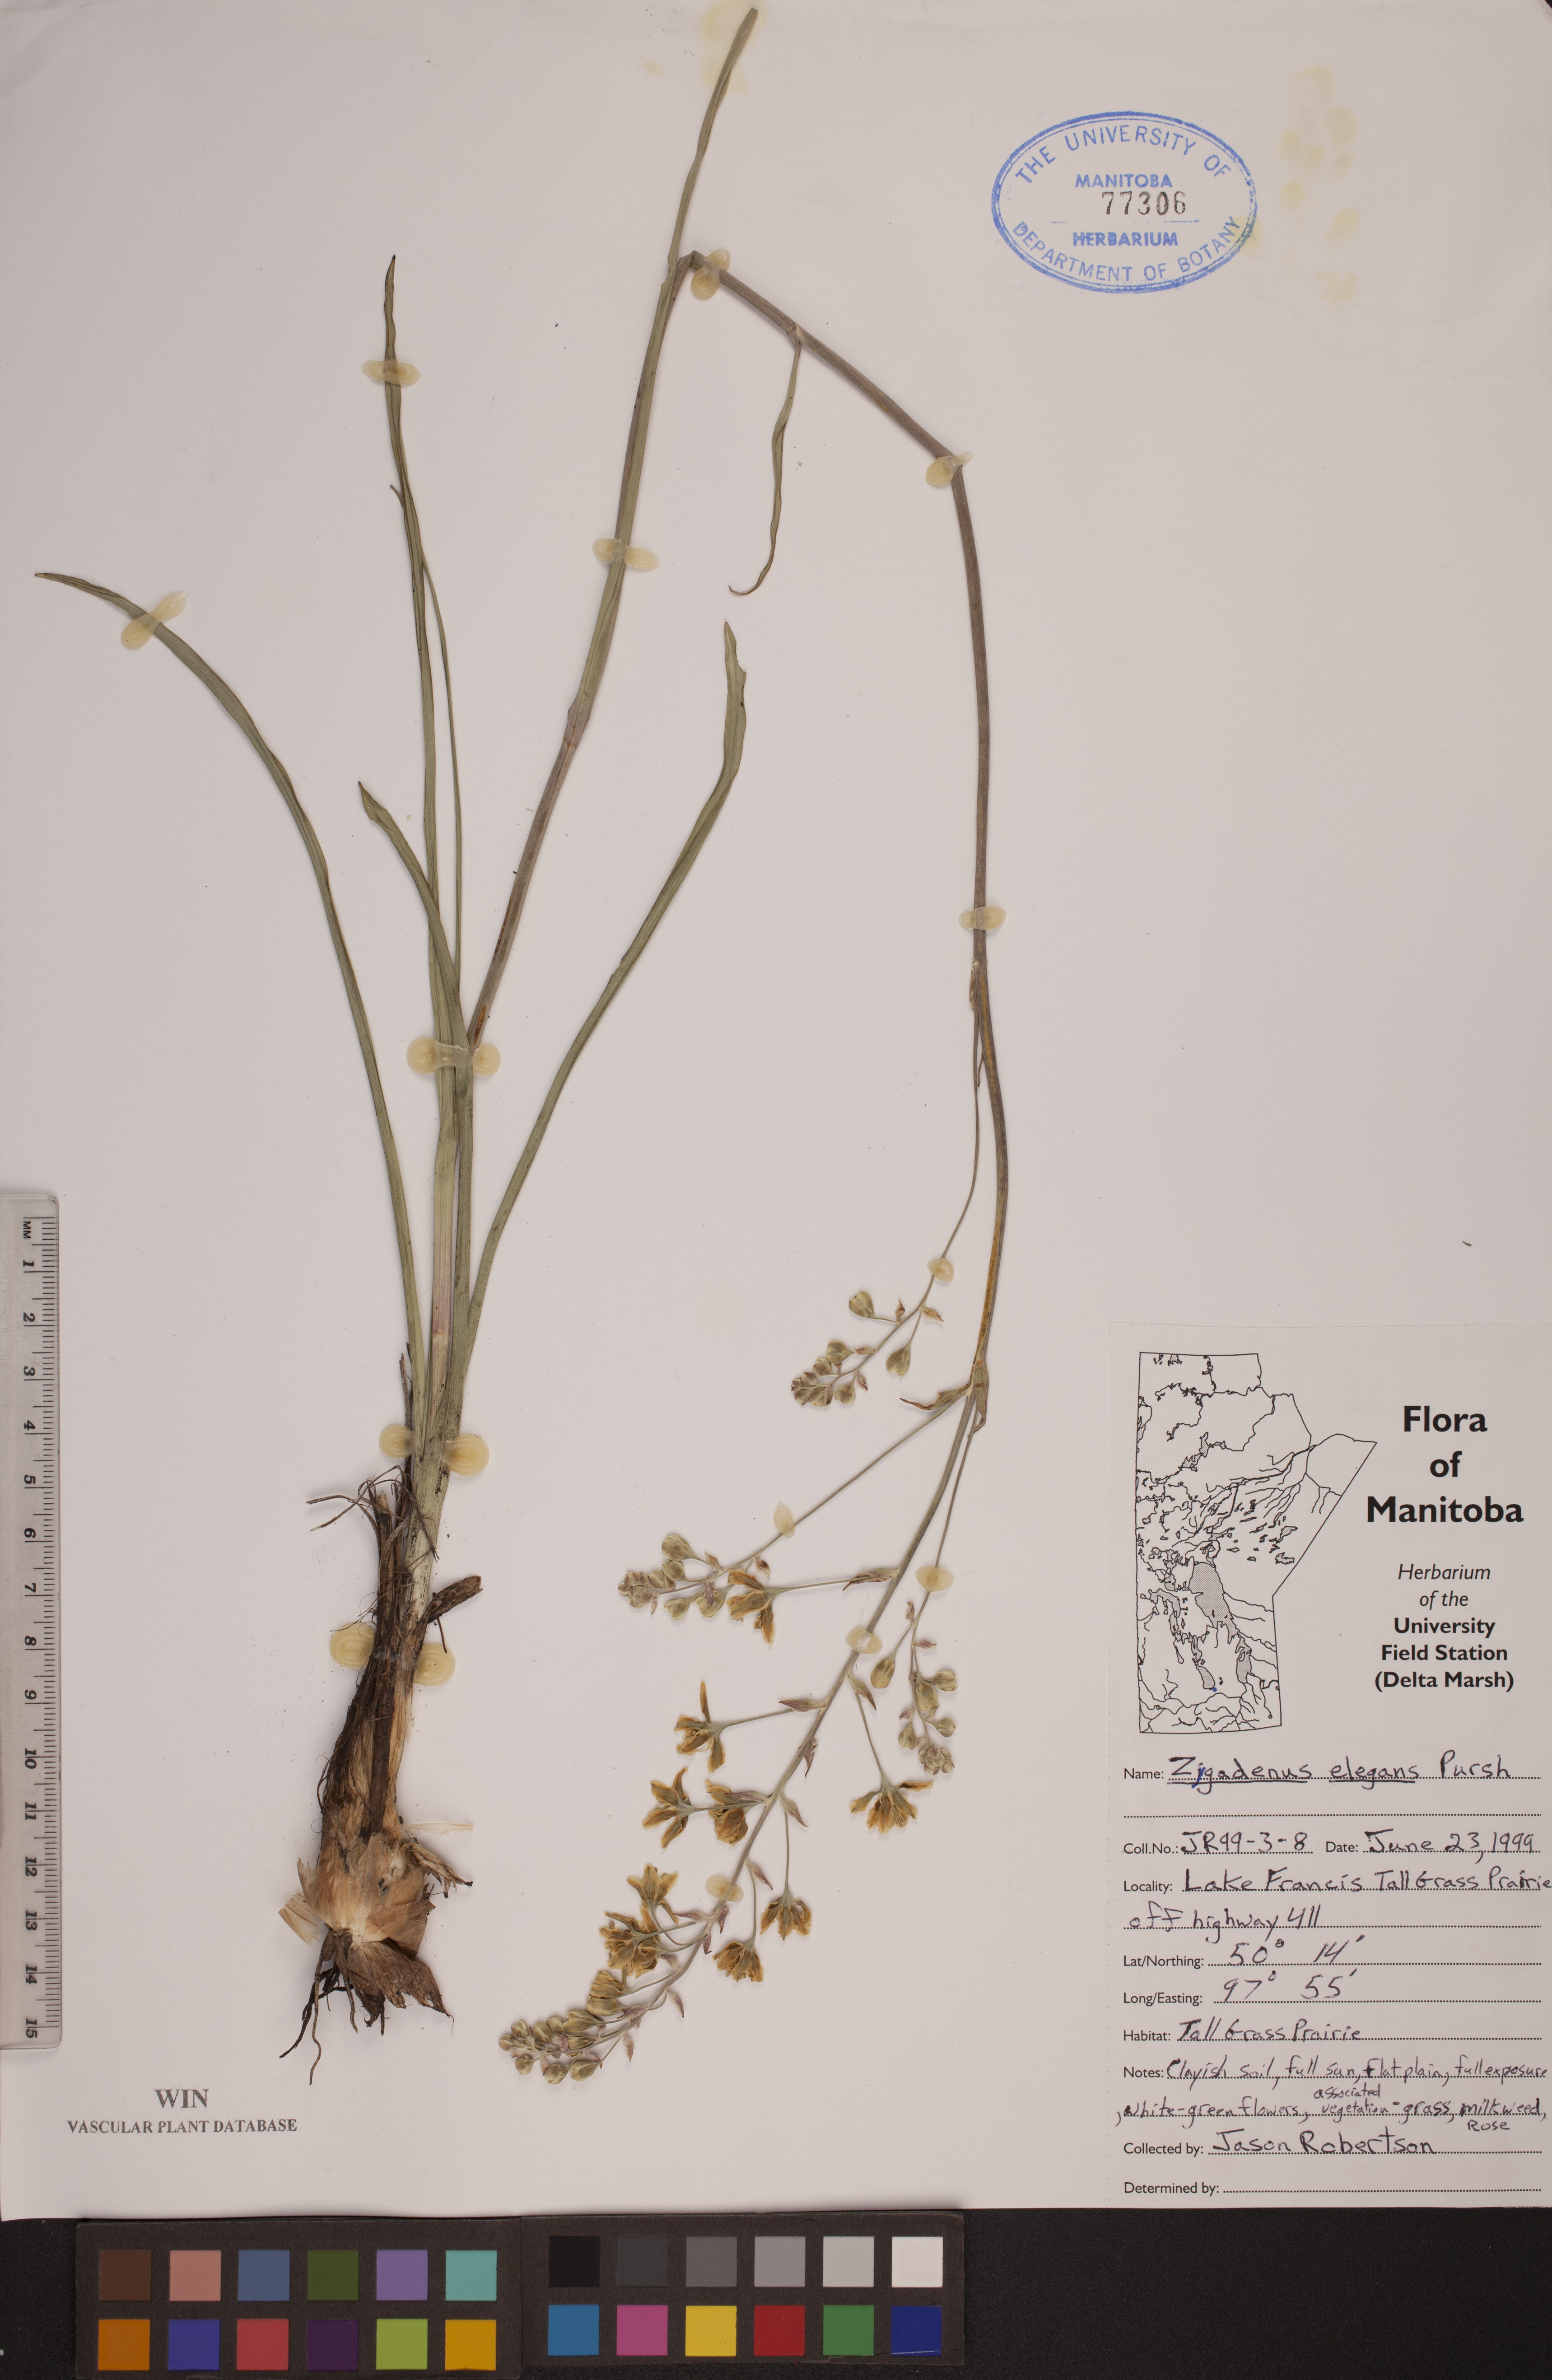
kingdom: Plantae
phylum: Tracheophyta
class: Liliopsida
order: Liliales
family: Melanthiaceae
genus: Anticlea
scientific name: Anticlea elegans
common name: Mountain death camas
